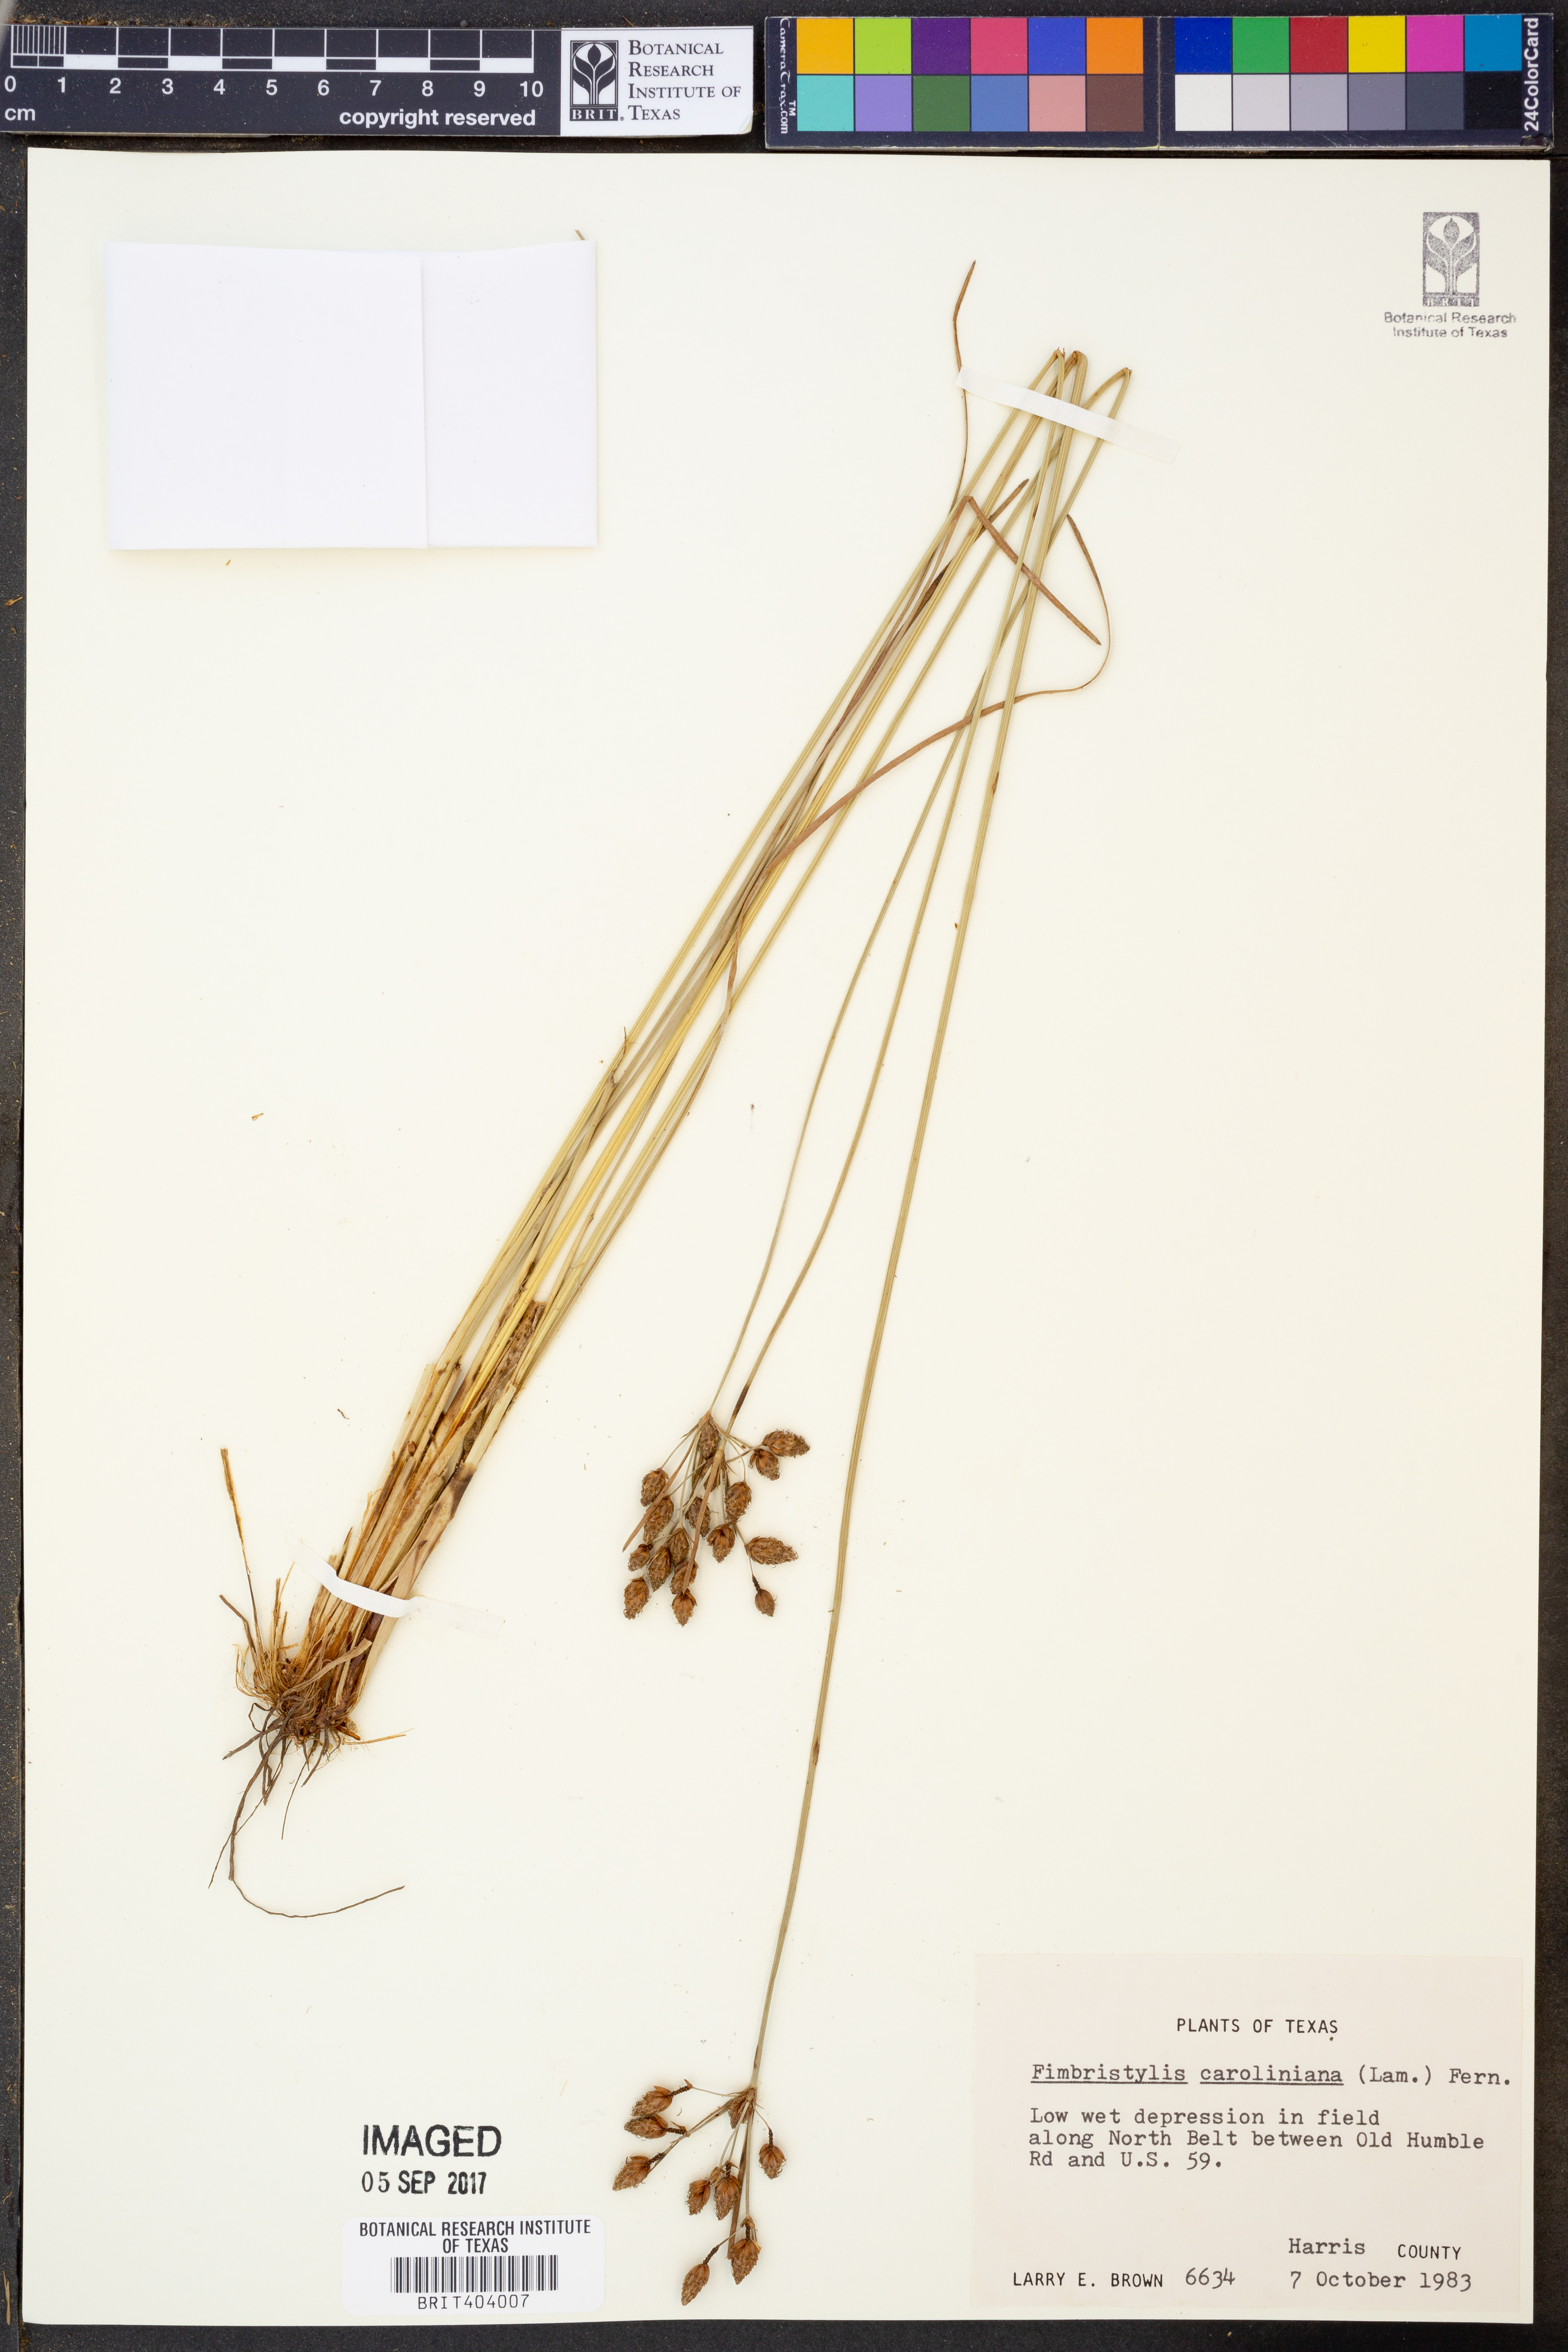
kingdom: Plantae
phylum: Tracheophyta
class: Liliopsida
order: Poales
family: Cyperaceae
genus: Fimbristylis
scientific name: Fimbristylis caroliniana
